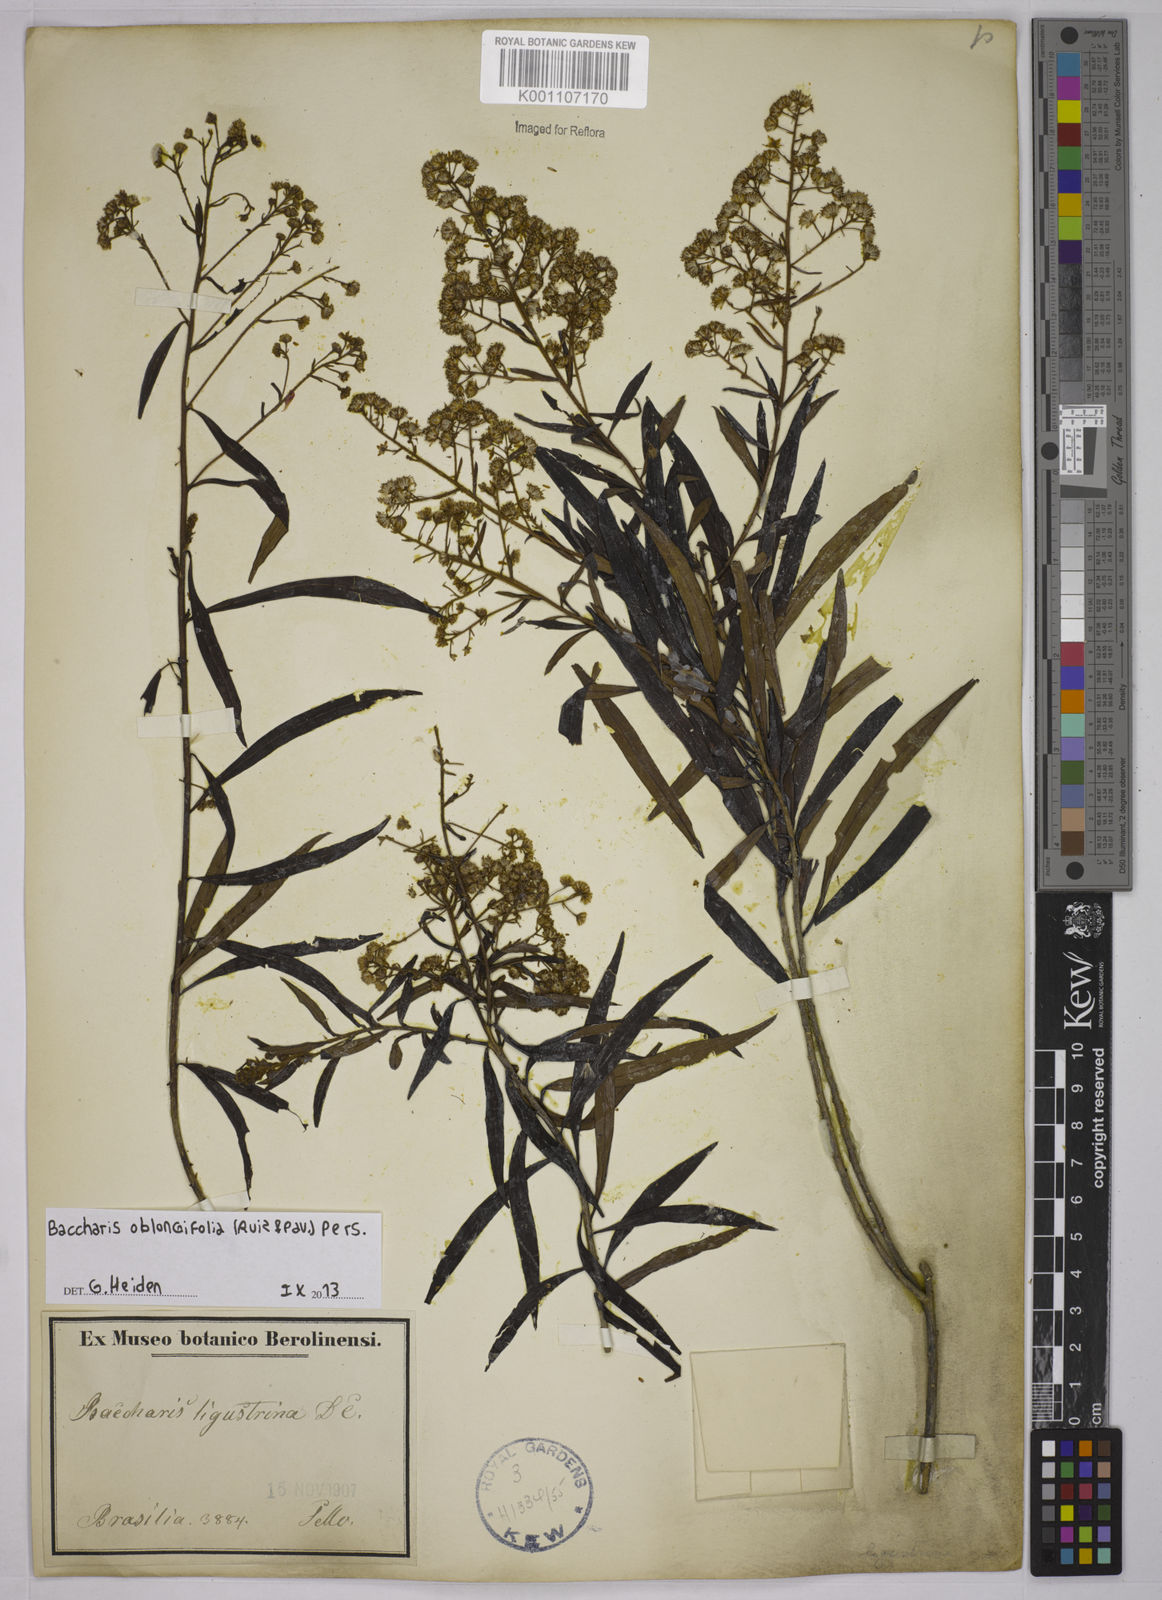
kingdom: Plantae
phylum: Tracheophyta
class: Magnoliopsida
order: Asterales
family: Asteraceae
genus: Baccharis
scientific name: Baccharis oblongifolia
